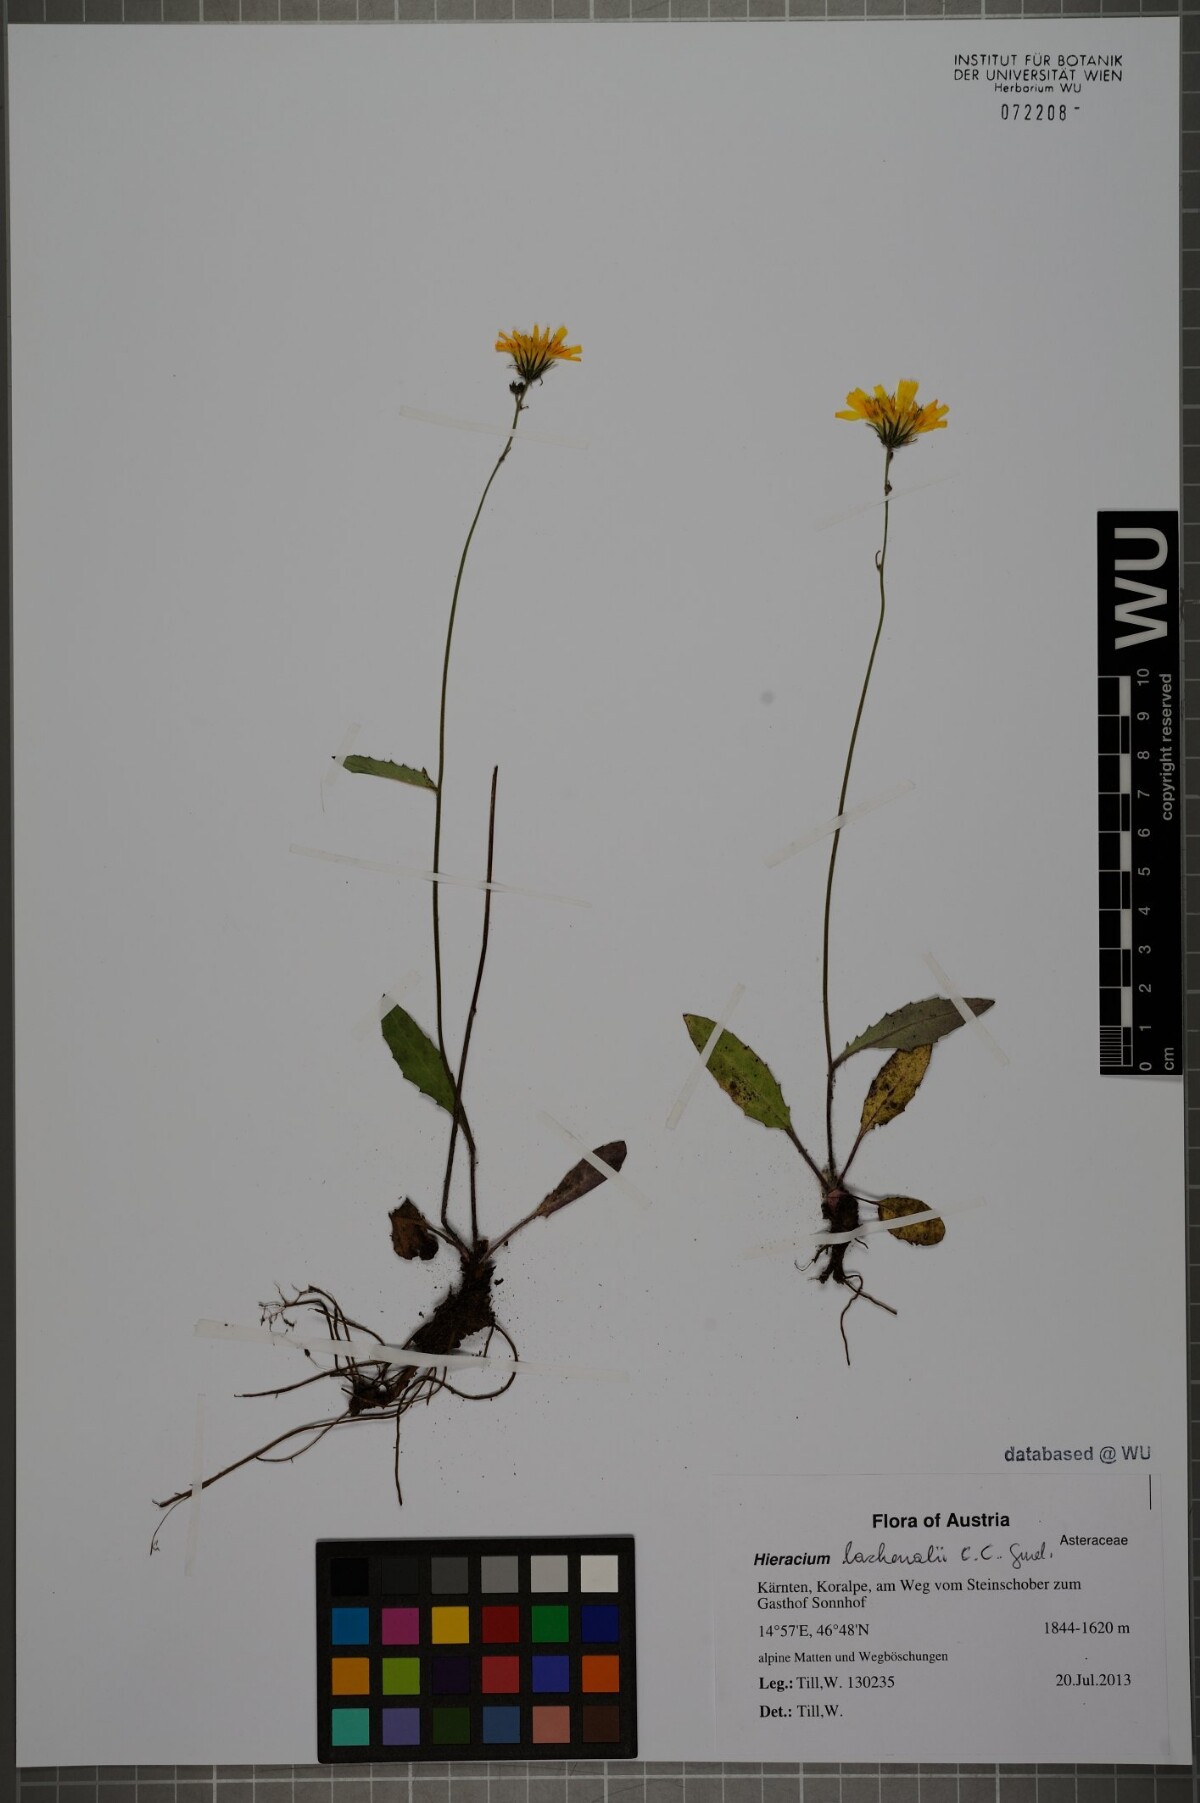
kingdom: Plantae
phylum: Tracheophyta
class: Magnoliopsida
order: Asterales
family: Asteraceae
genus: Hieracium
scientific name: Hieracium lachenalii
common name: Common hawkweed
